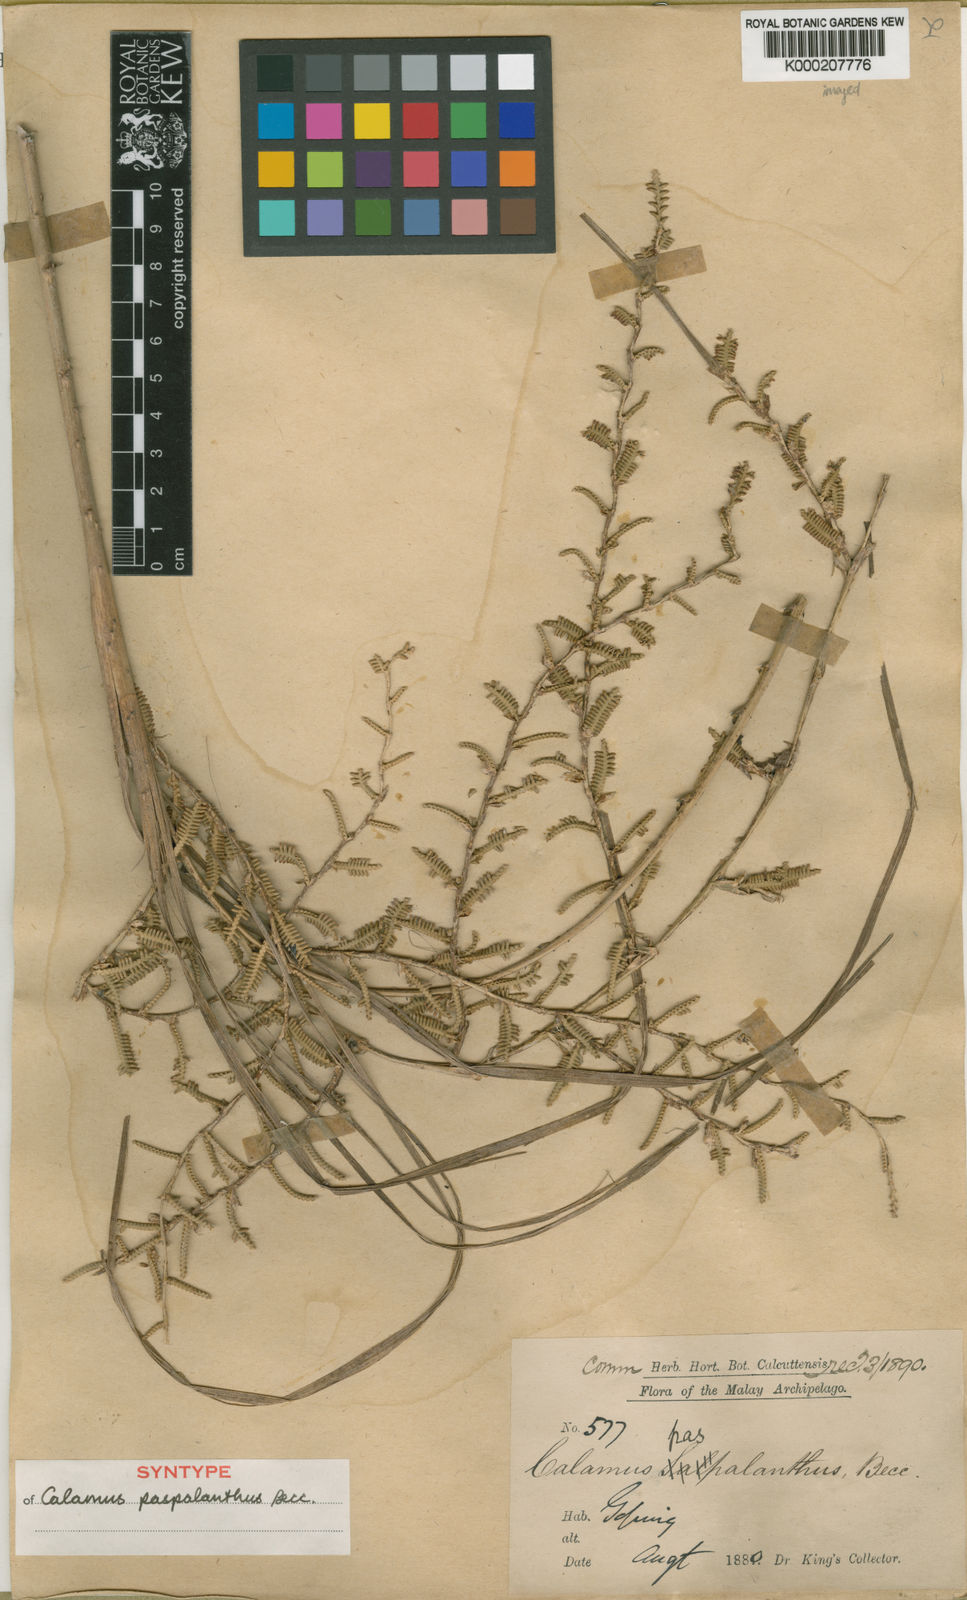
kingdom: Plantae
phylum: Tracheophyta
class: Liliopsida
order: Arecales
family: Arecaceae
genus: Calamus
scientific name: Calamus paspalanthus
